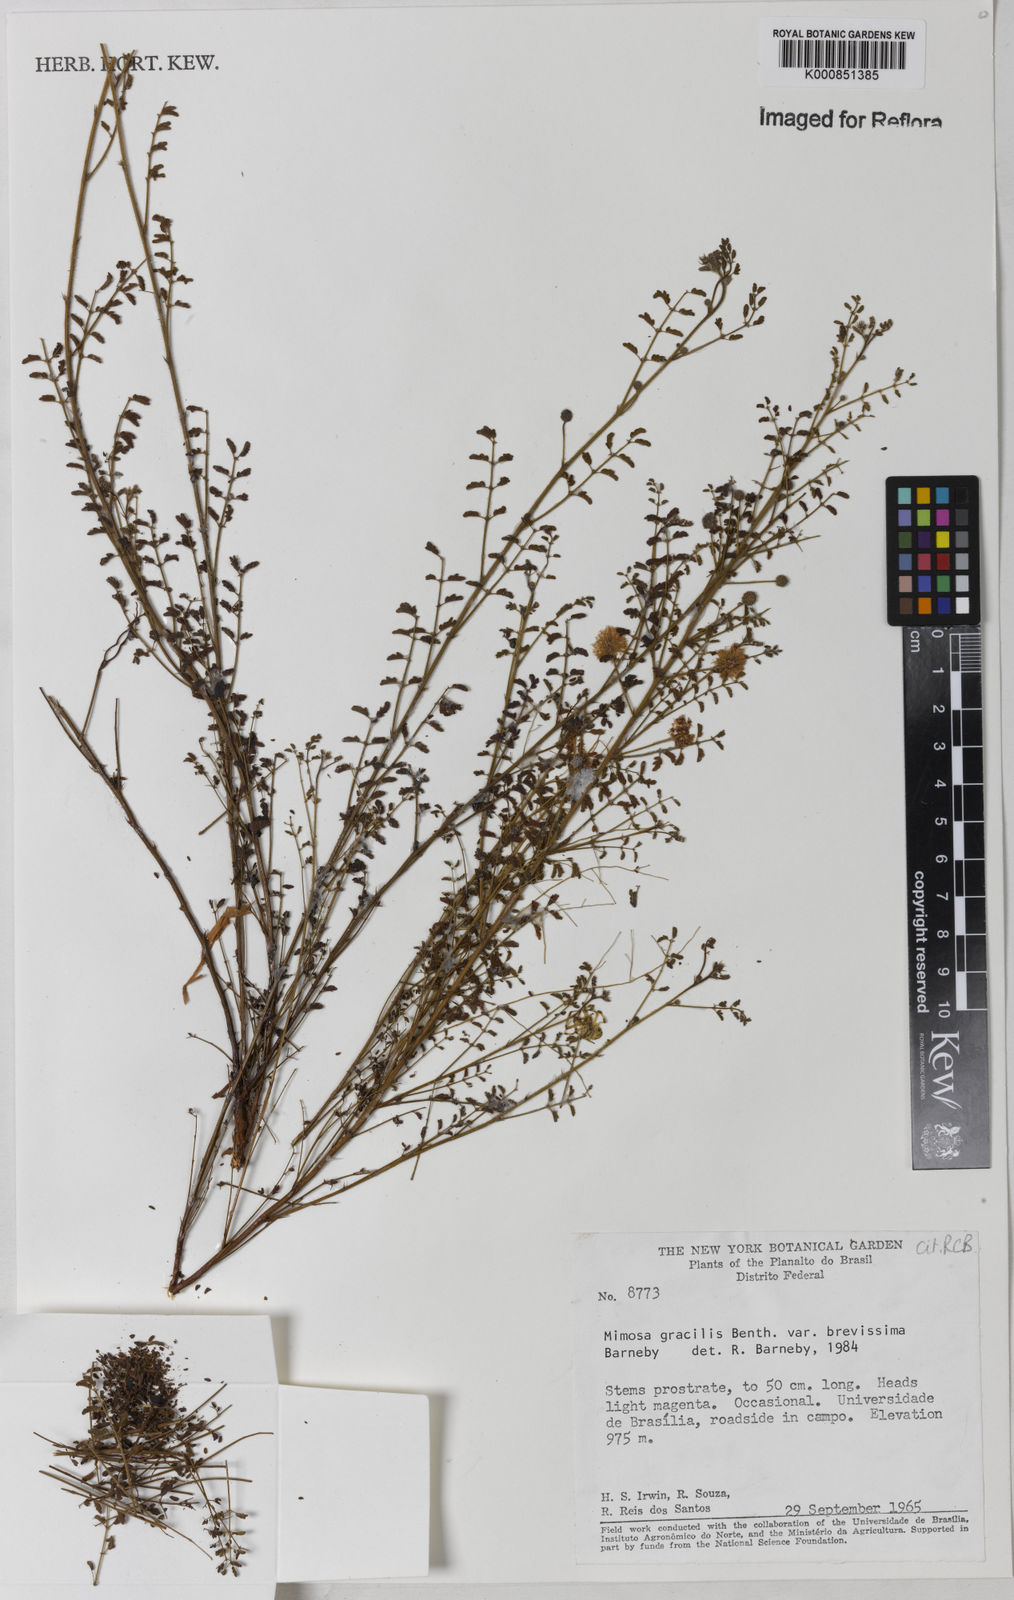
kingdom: Plantae
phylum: Tracheophyta
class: Magnoliopsida
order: Fabales
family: Fabaceae
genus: Mimosa
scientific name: Mimosa gracilis
